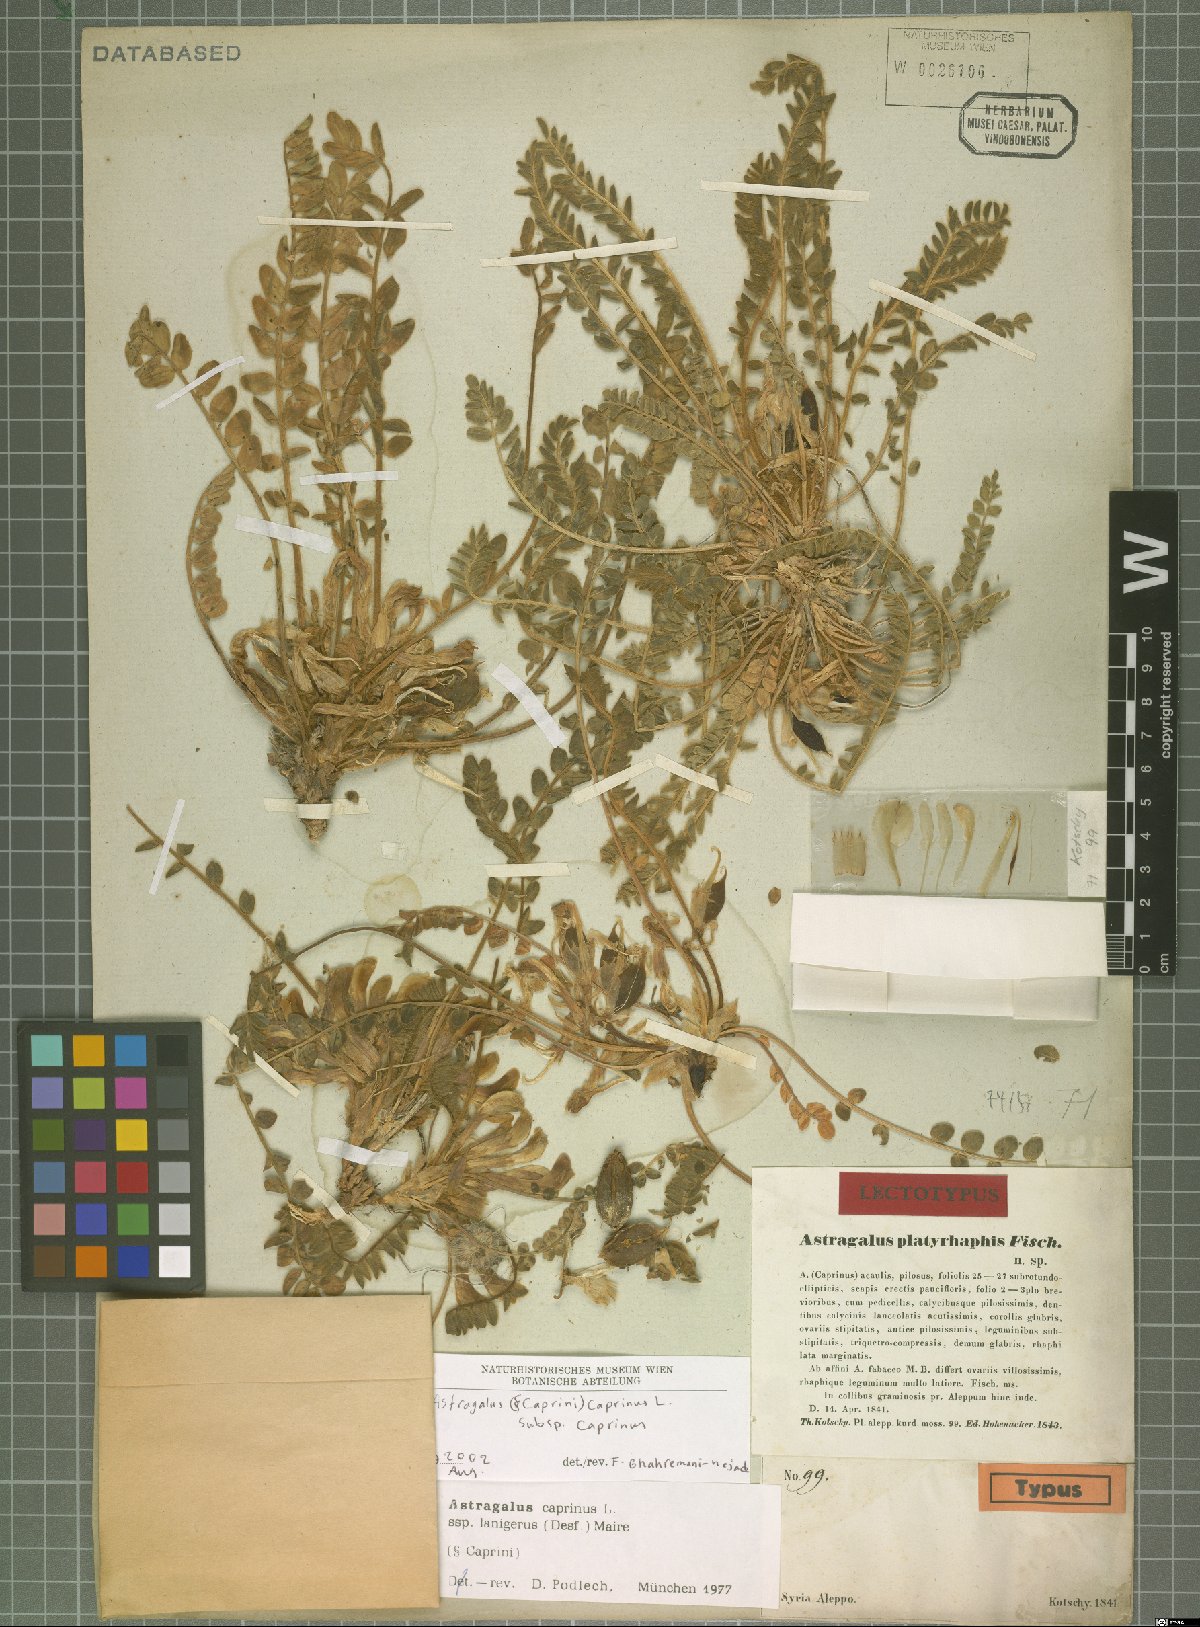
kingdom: Plantae
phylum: Tracheophyta
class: Magnoliopsida
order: Fabales
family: Fabaceae
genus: Astragalus
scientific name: Astragalus caprinus
